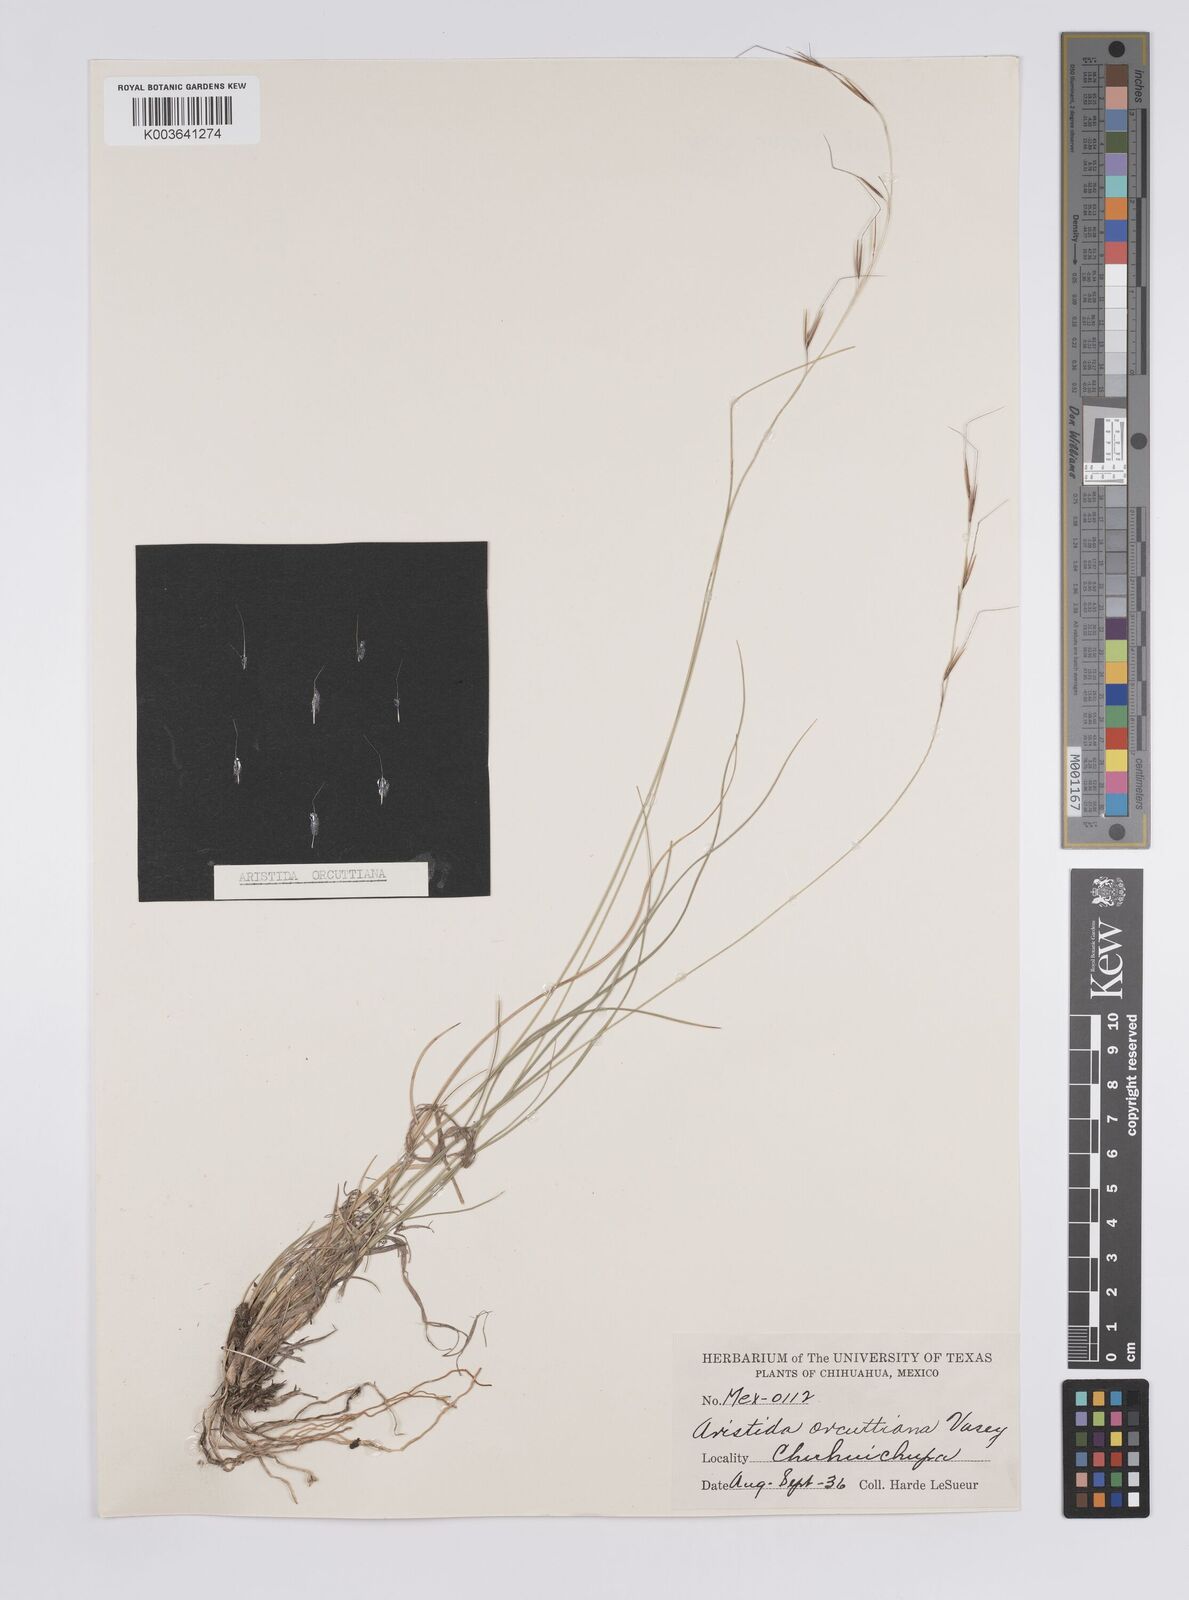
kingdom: Plantae
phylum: Tracheophyta
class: Liliopsida
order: Poales
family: Poaceae
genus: Aristida
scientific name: Aristida schiedeana
